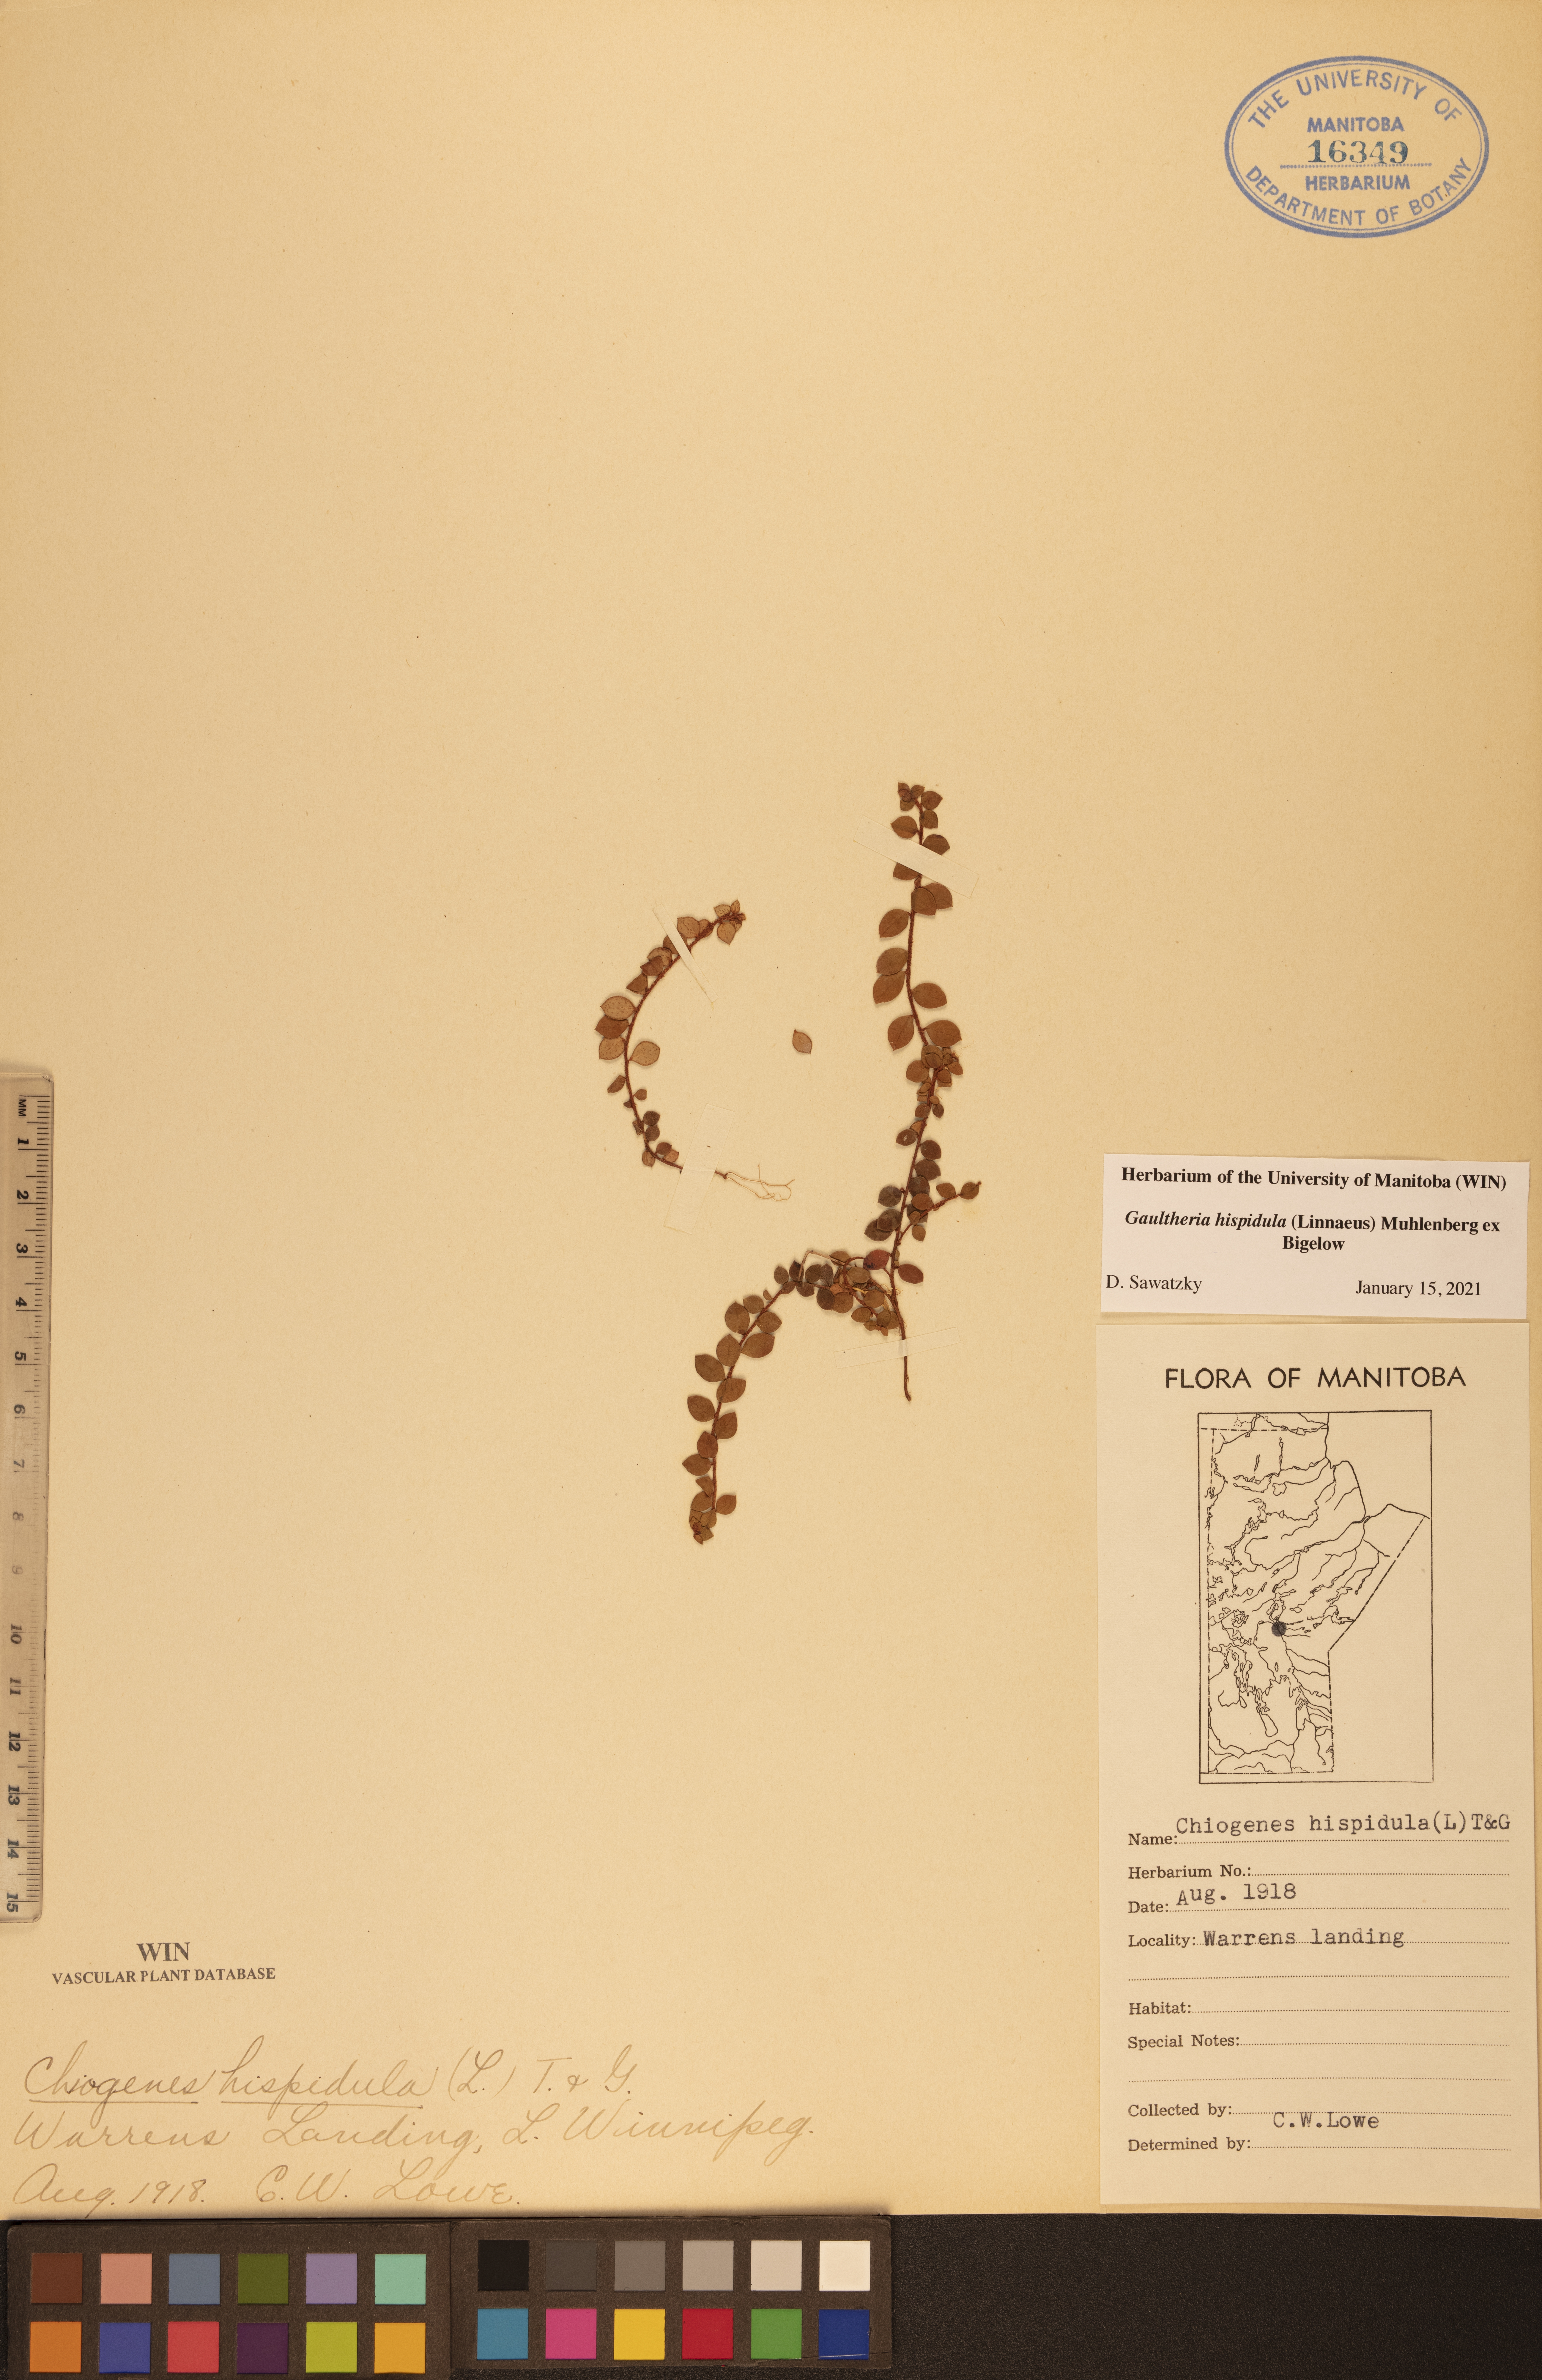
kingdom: Plantae
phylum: Tracheophyta
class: Magnoliopsida
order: Ericales
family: Ericaceae
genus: Gaultheria
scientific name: Gaultheria hispidula
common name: Cancer wintergreen
